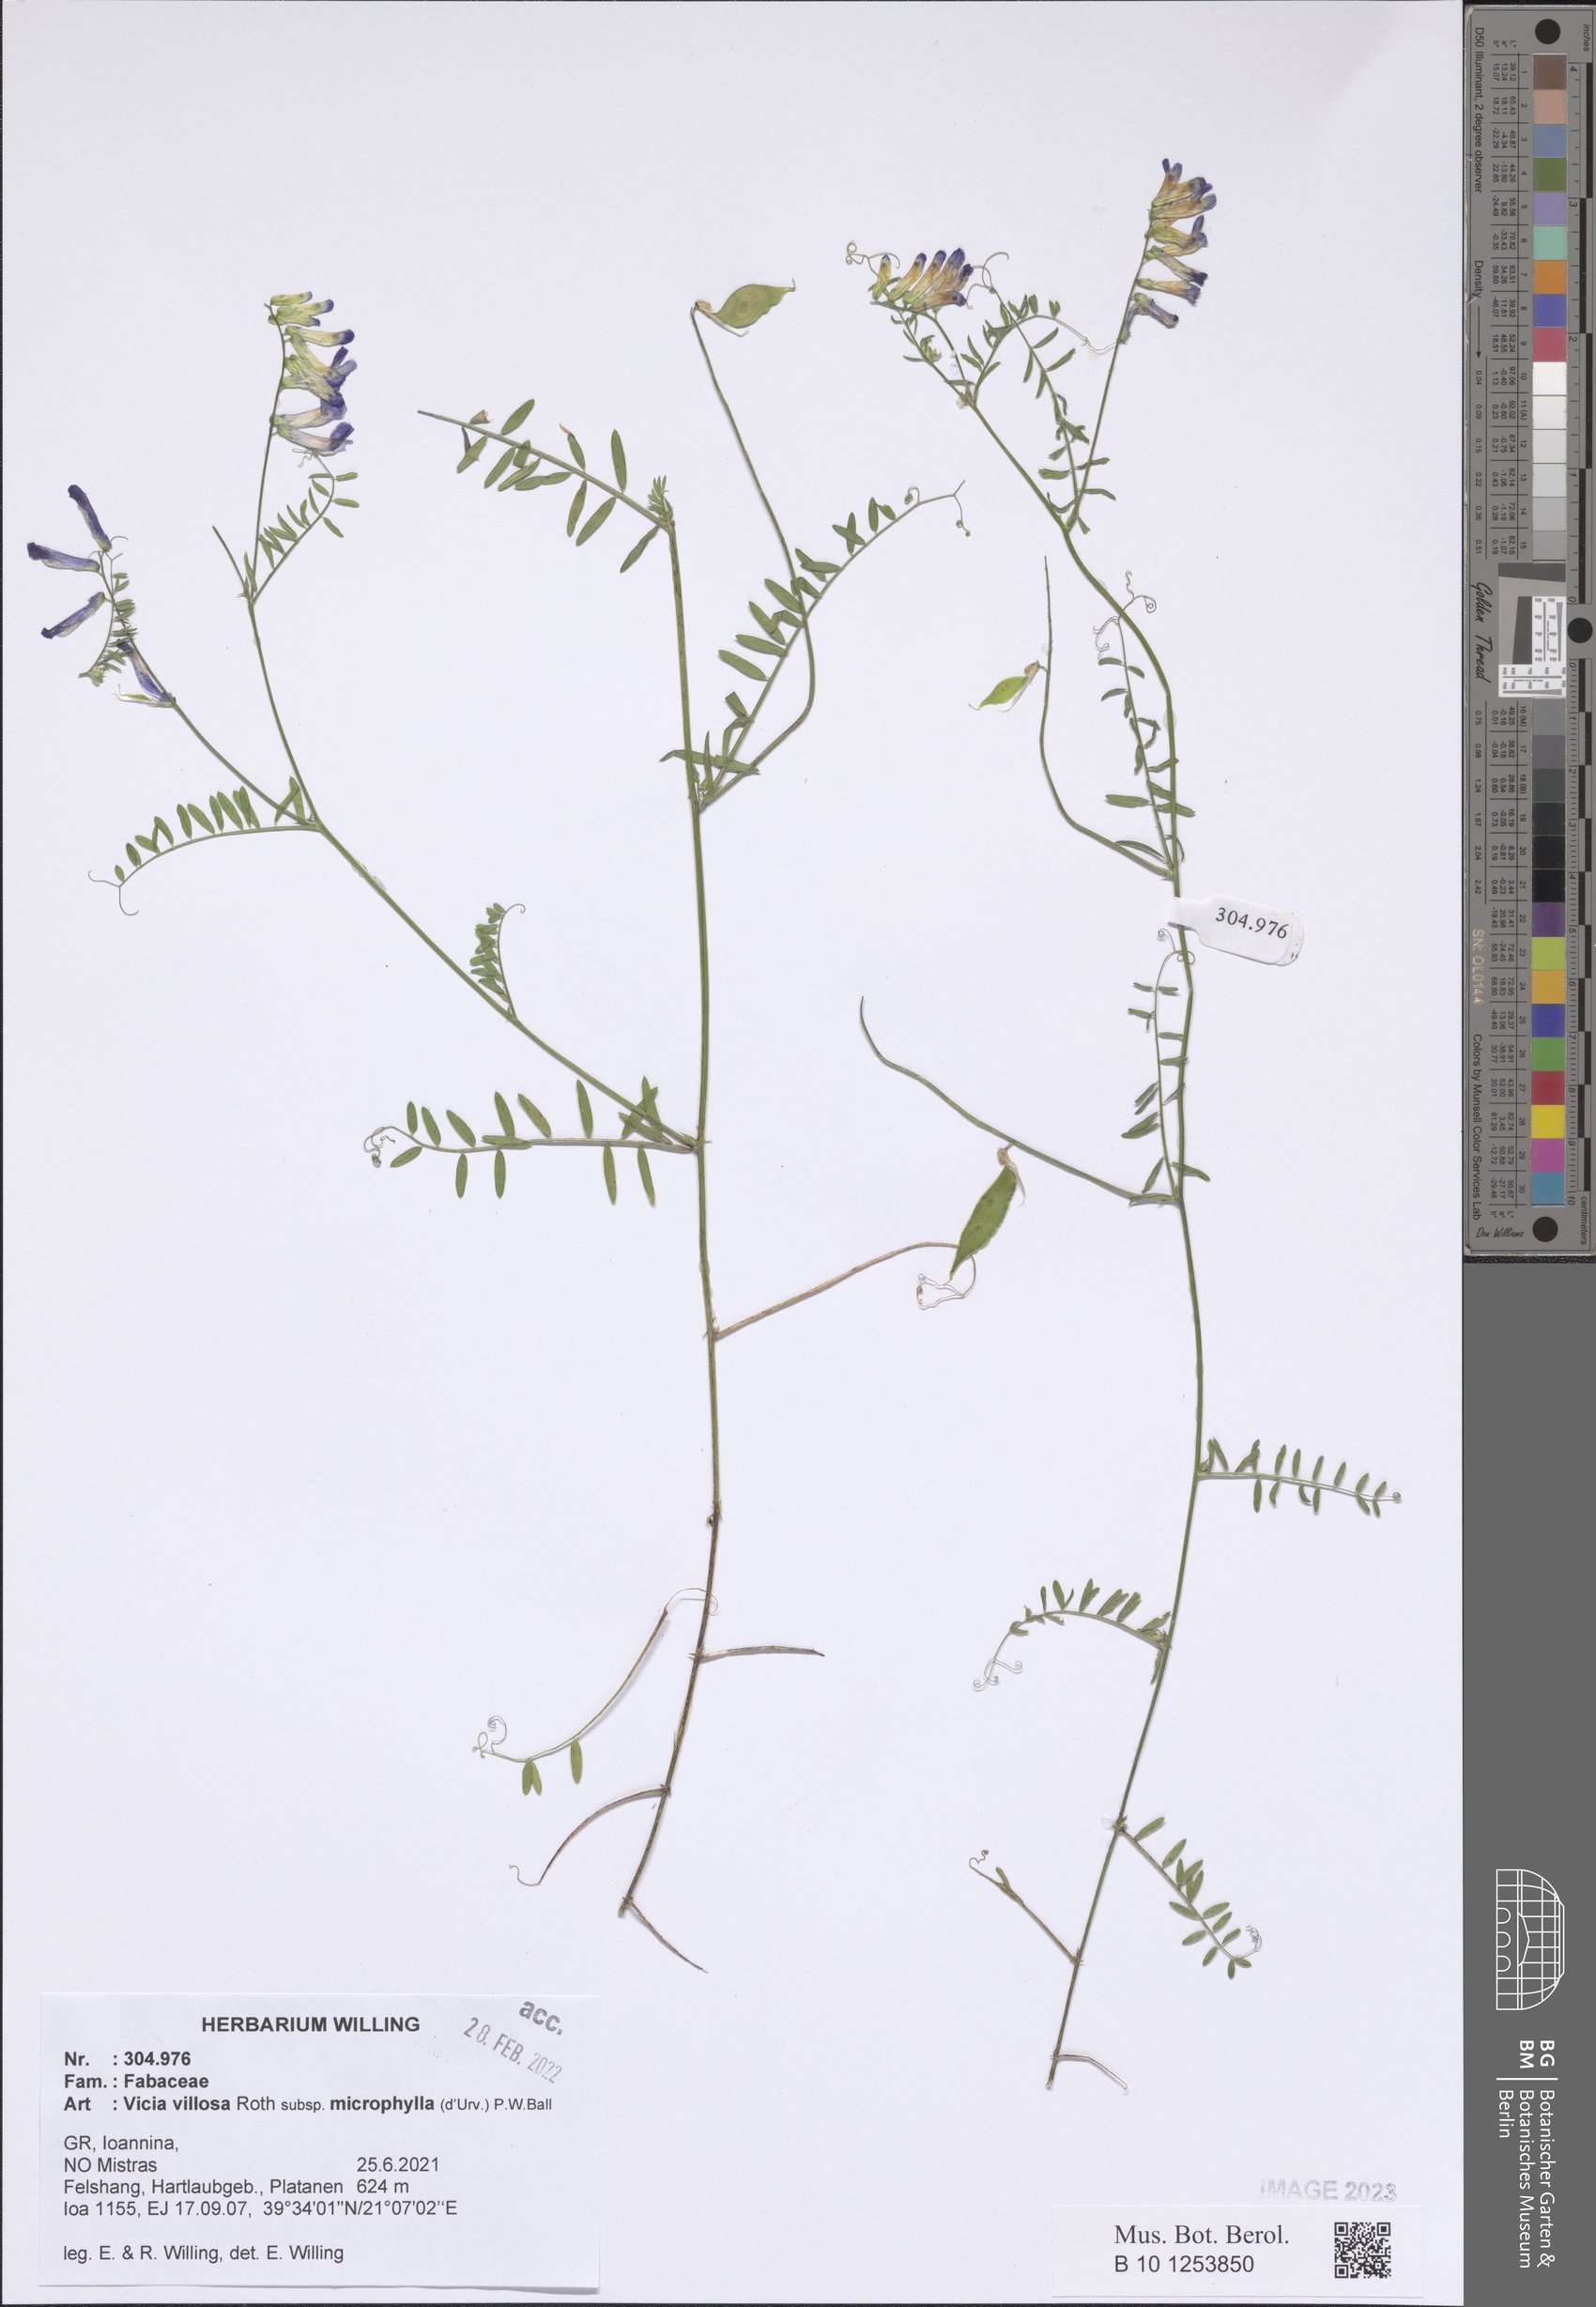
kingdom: Plantae
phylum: Tracheophyta
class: Magnoliopsida
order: Fabales
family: Fabaceae
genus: Vicia
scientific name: Vicia villosa
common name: Fodder vetch
